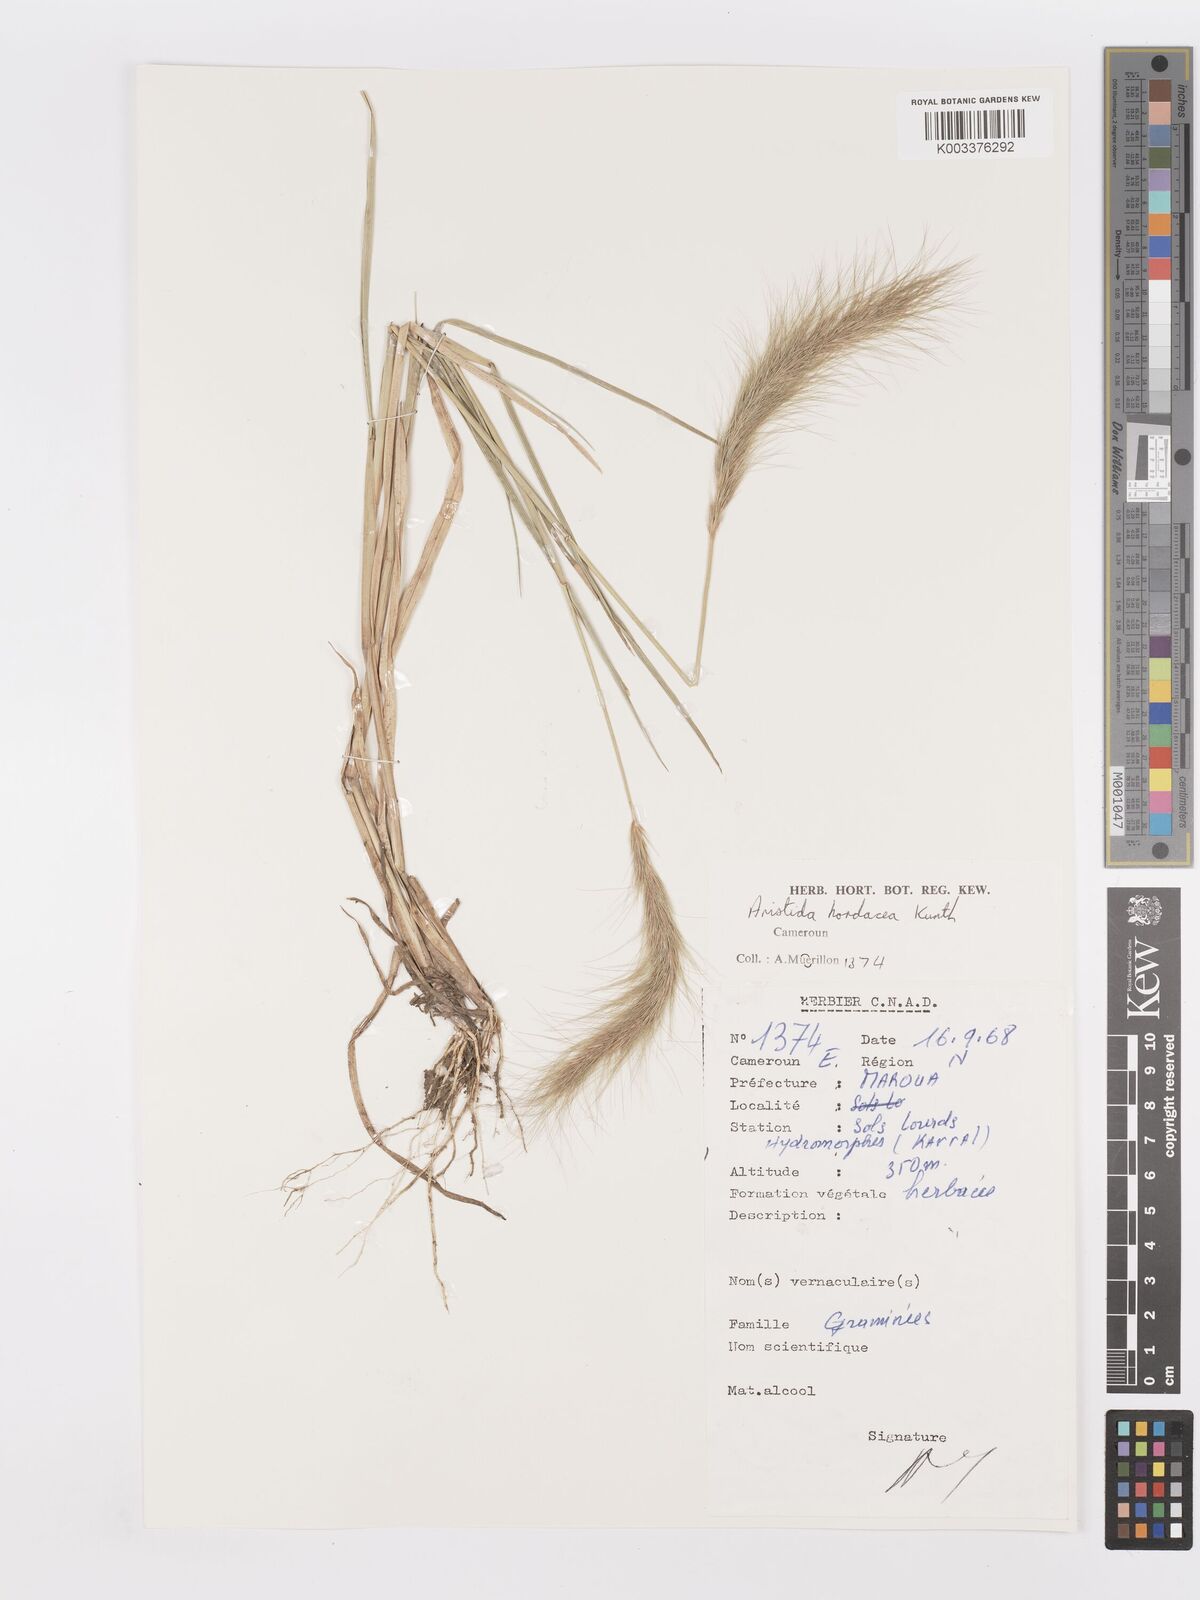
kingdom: Plantae
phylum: Tracheophyta
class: Liliopsida
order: Poales
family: Poaceae
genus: Aristida
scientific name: Aristida hordeacea
